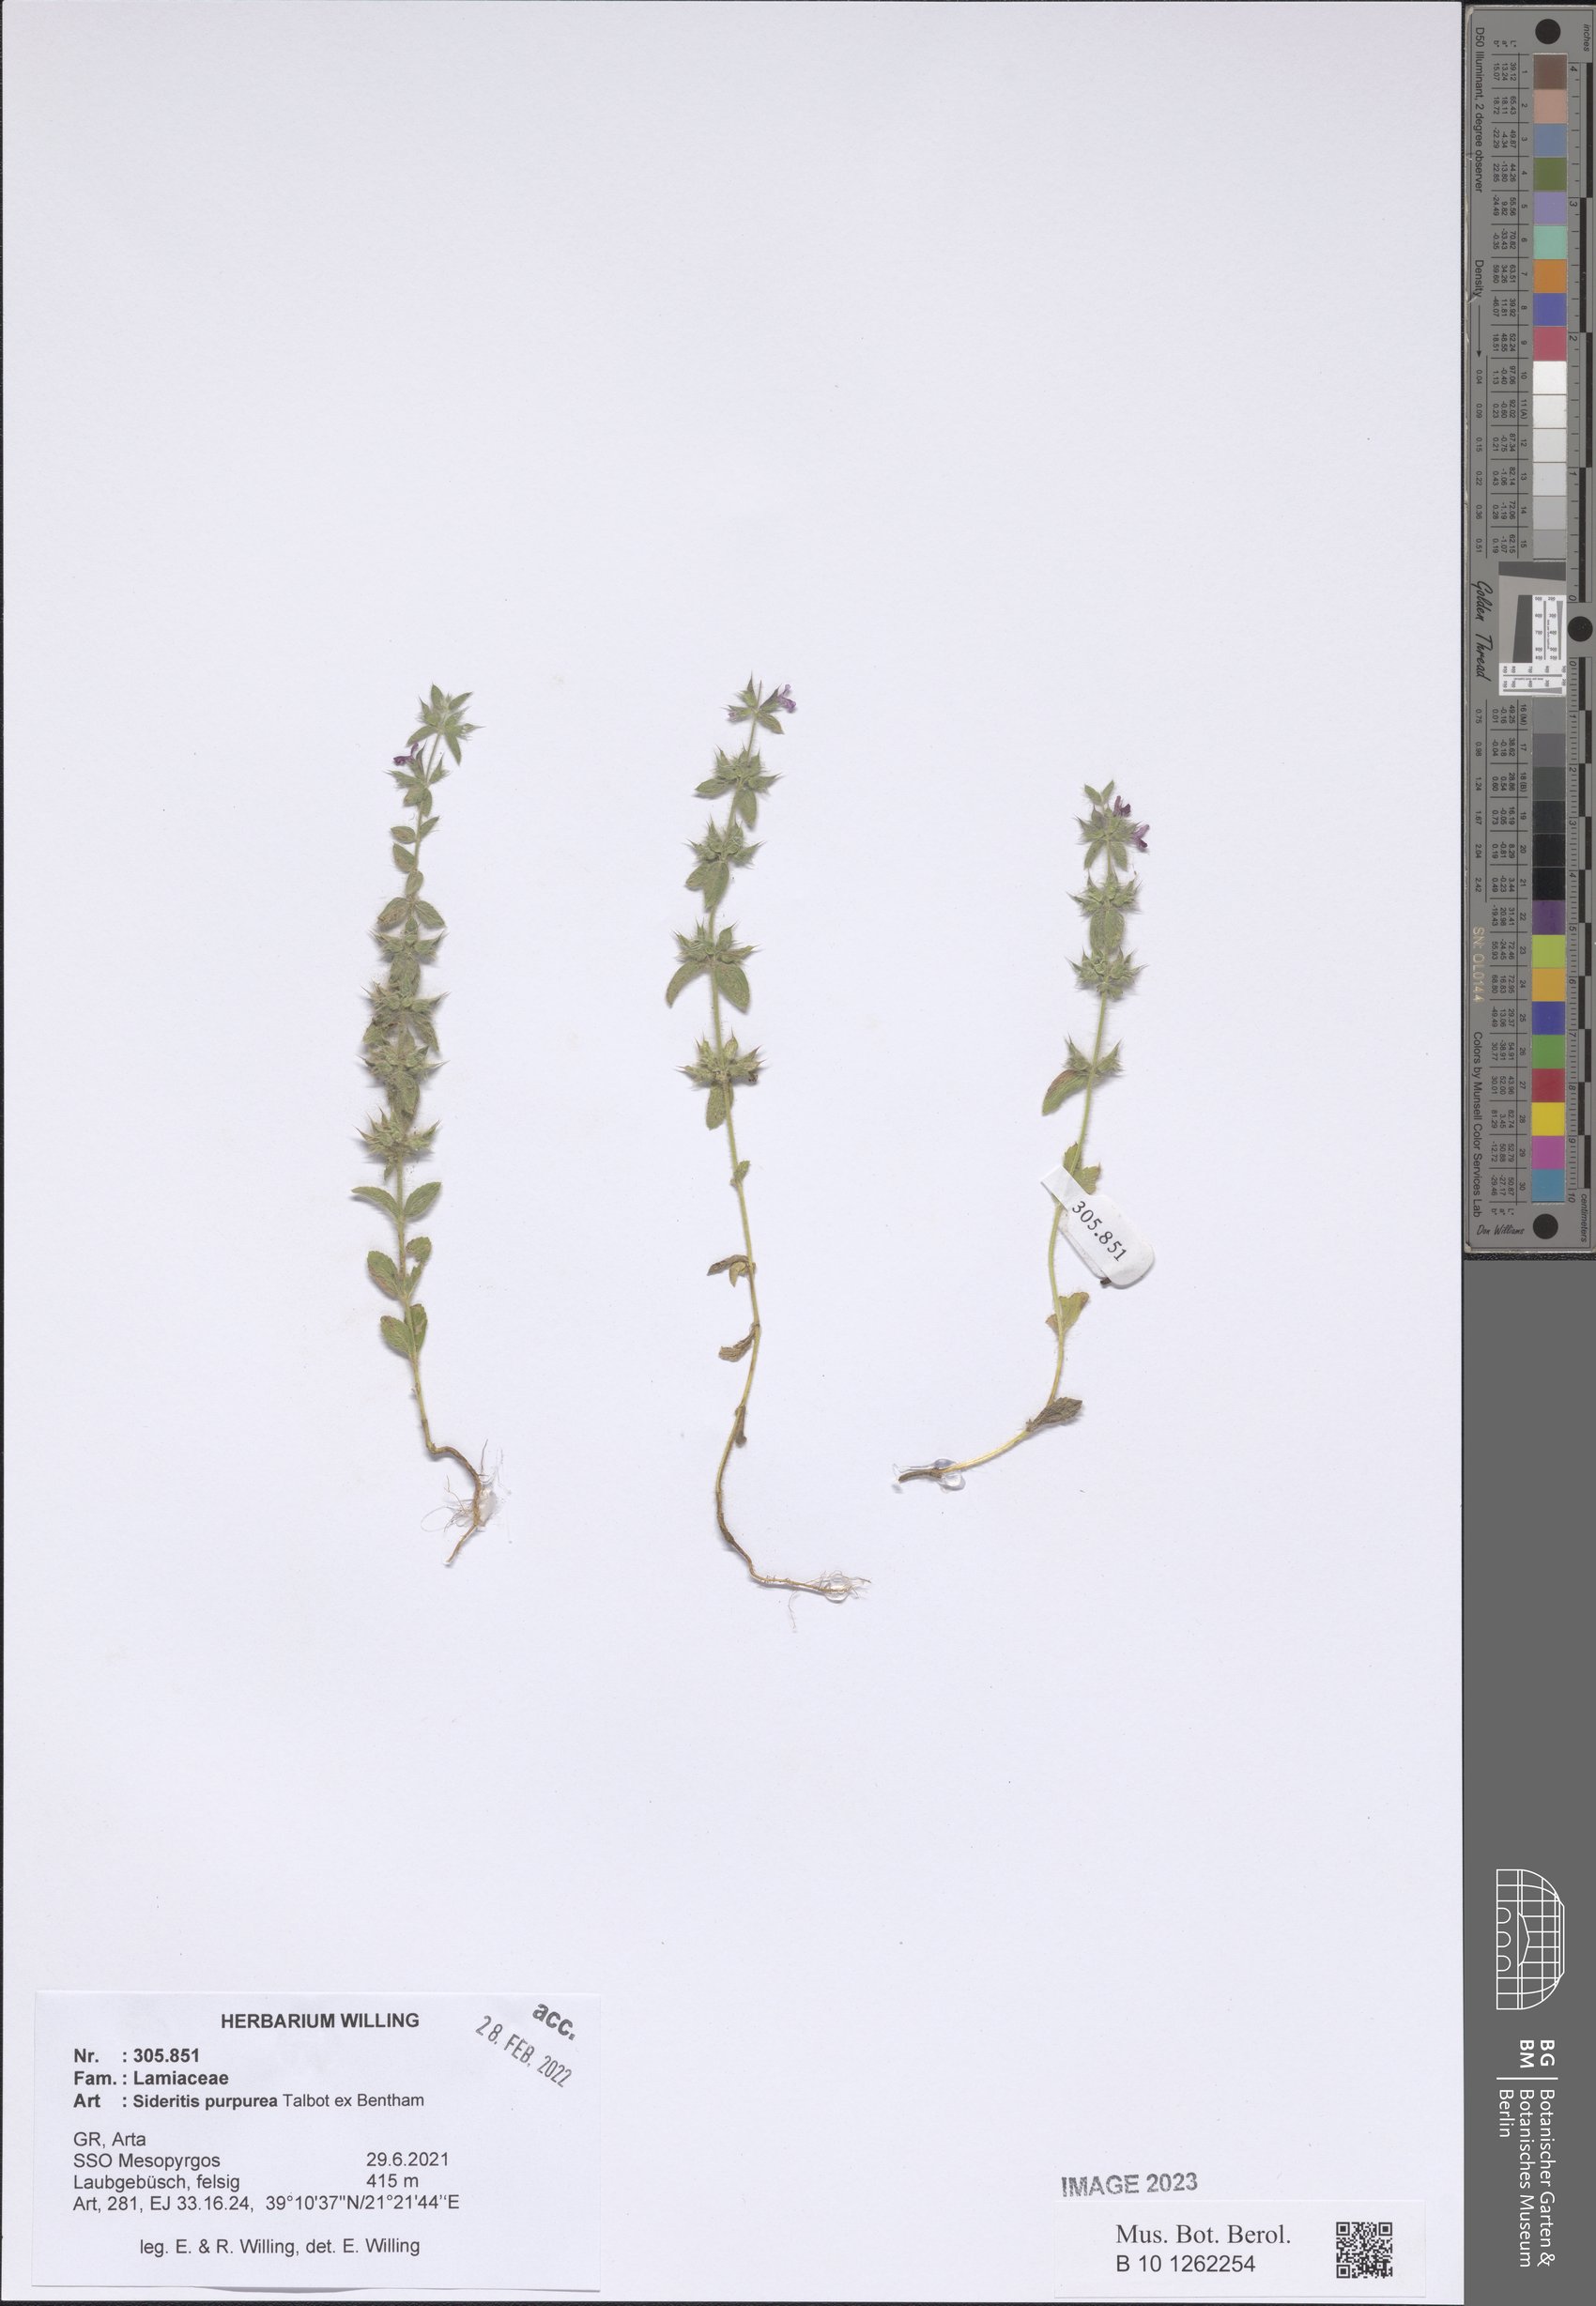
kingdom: Plantae
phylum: Tracheophyta
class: Magnoliopsida
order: Lamiales
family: Lamiaceae
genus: Sideritis
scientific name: Sideritis romana
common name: Simplebeak ironwort
